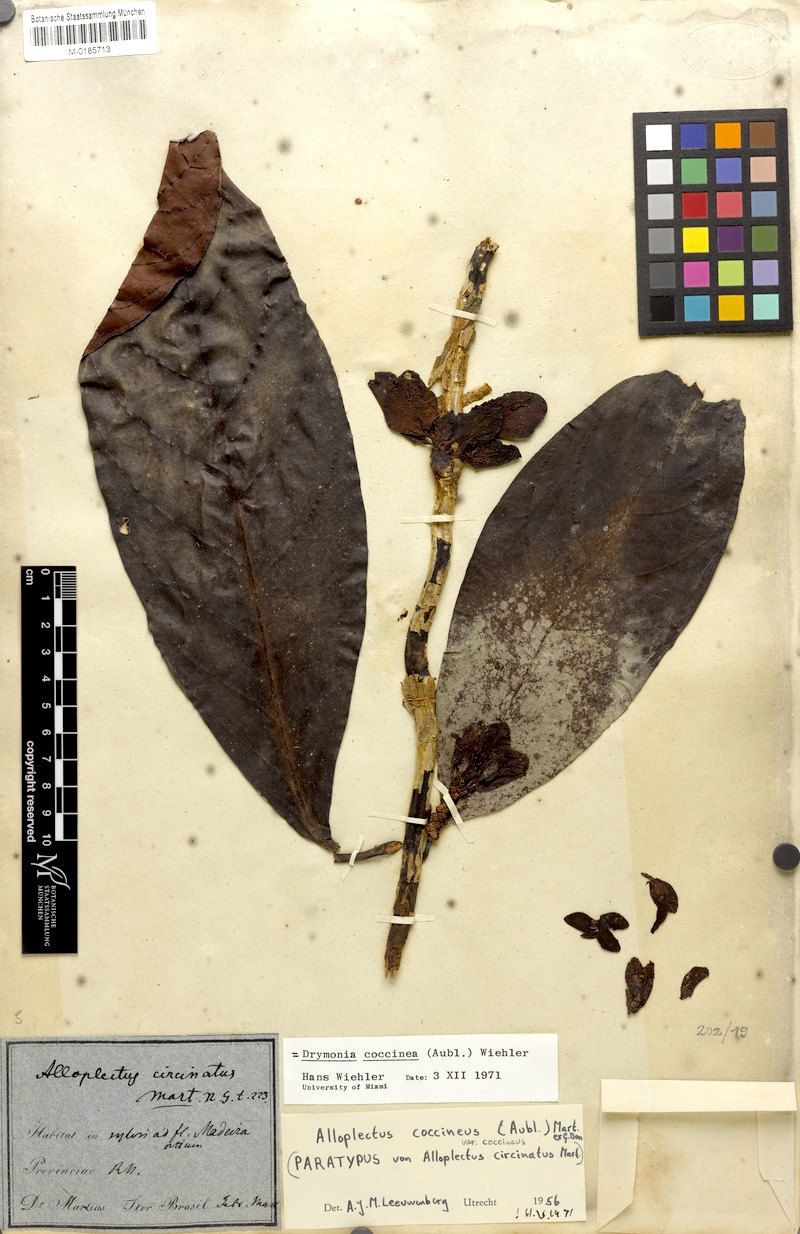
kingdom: Plantae
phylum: Tracheophyta
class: Magnoliopsida
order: Lamiales
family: Gesneriaceae
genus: Drymonia
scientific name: Drymonia coccinea
